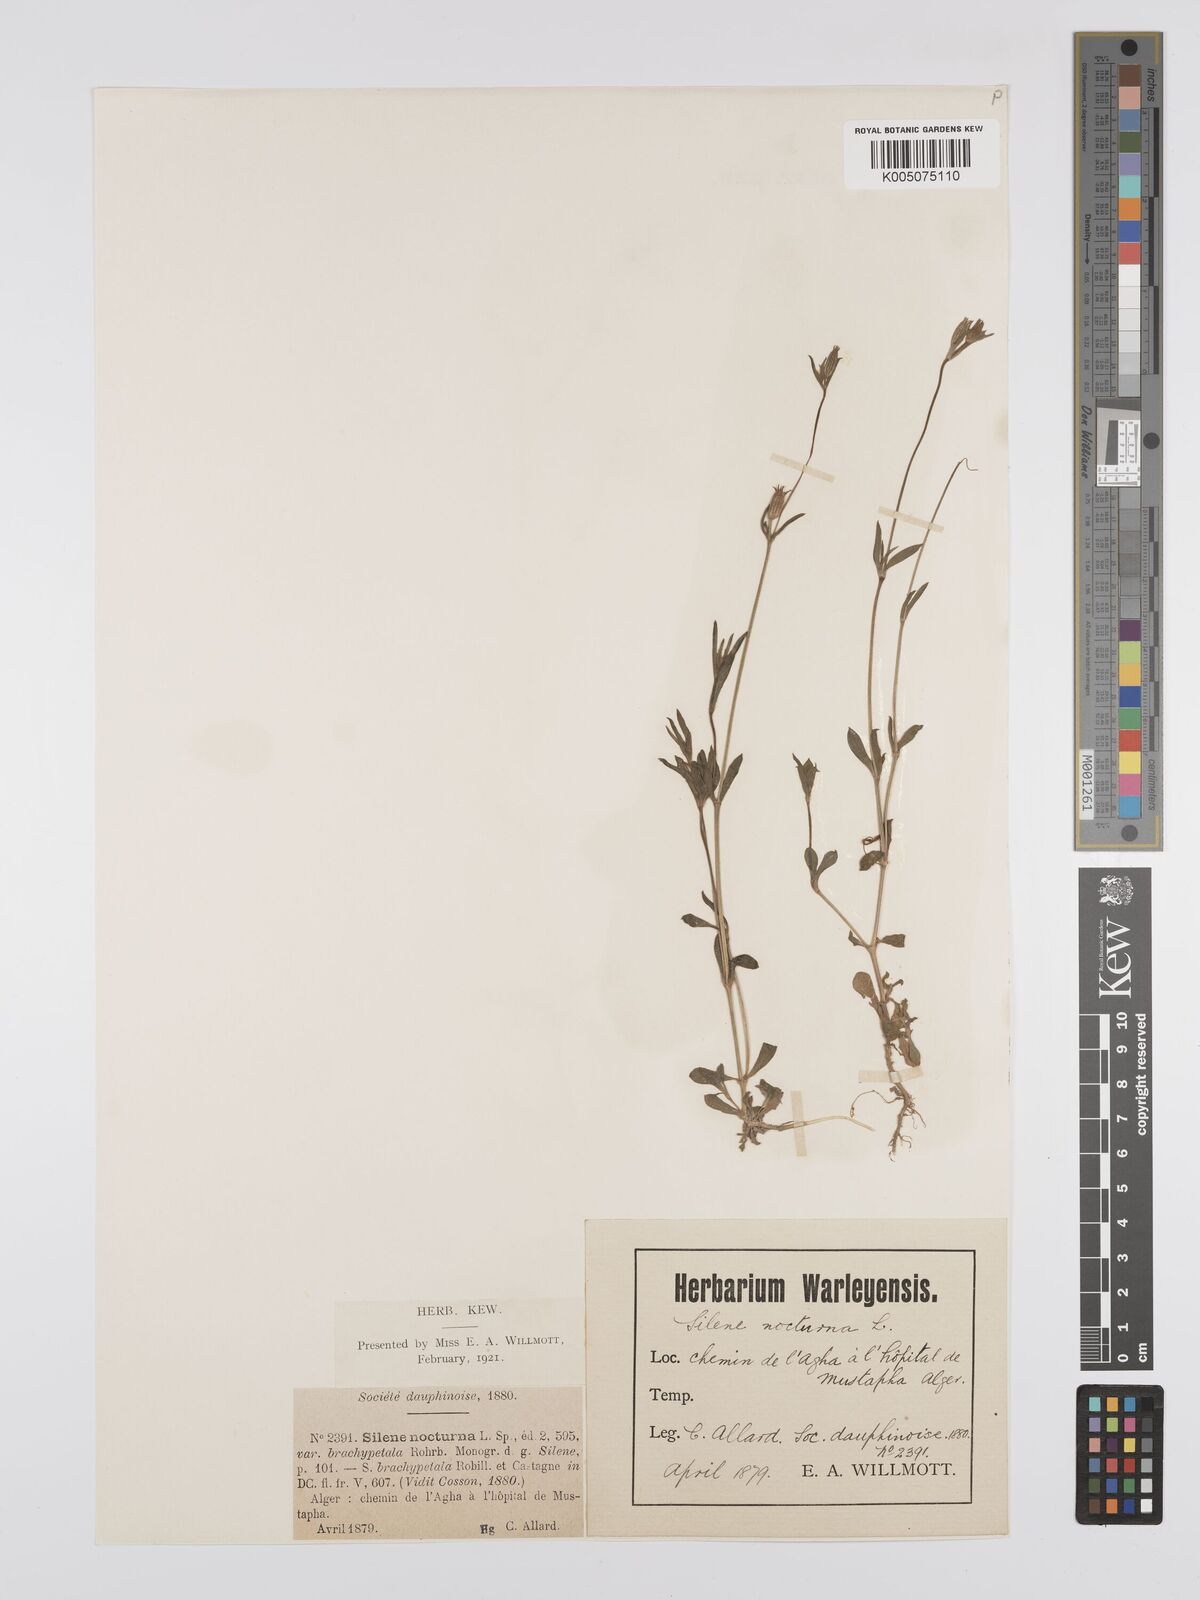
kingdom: Plantae
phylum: Tracheophyta
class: Magnoliopsida
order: Caryophyllales
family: Caryophyllaceae
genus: Silene
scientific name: Silene nocturna
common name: Mediterranean catchfly
